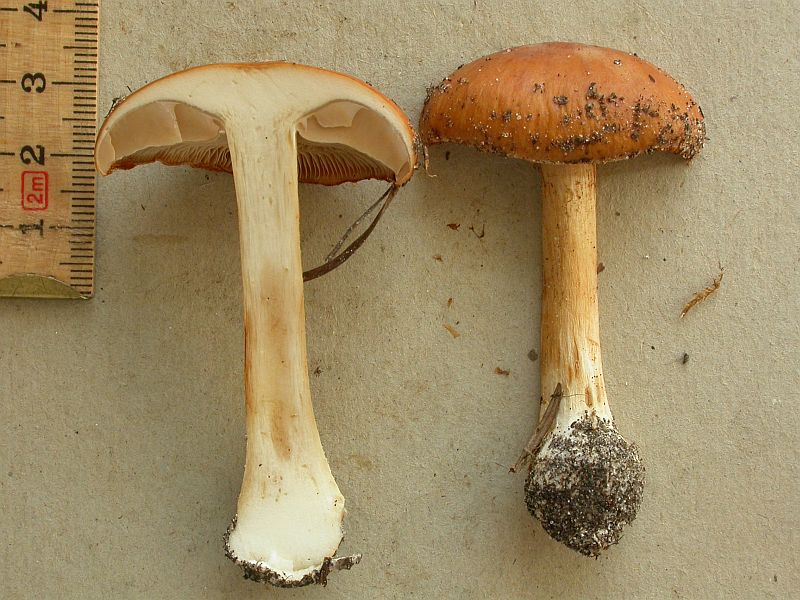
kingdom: Fungi
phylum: Basidiomycota
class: Agaricomycetes
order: Agaricales
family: Cortinariaceae
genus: Thaxterogaster
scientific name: Thaxterogaster multiformis
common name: honning-slørhat
